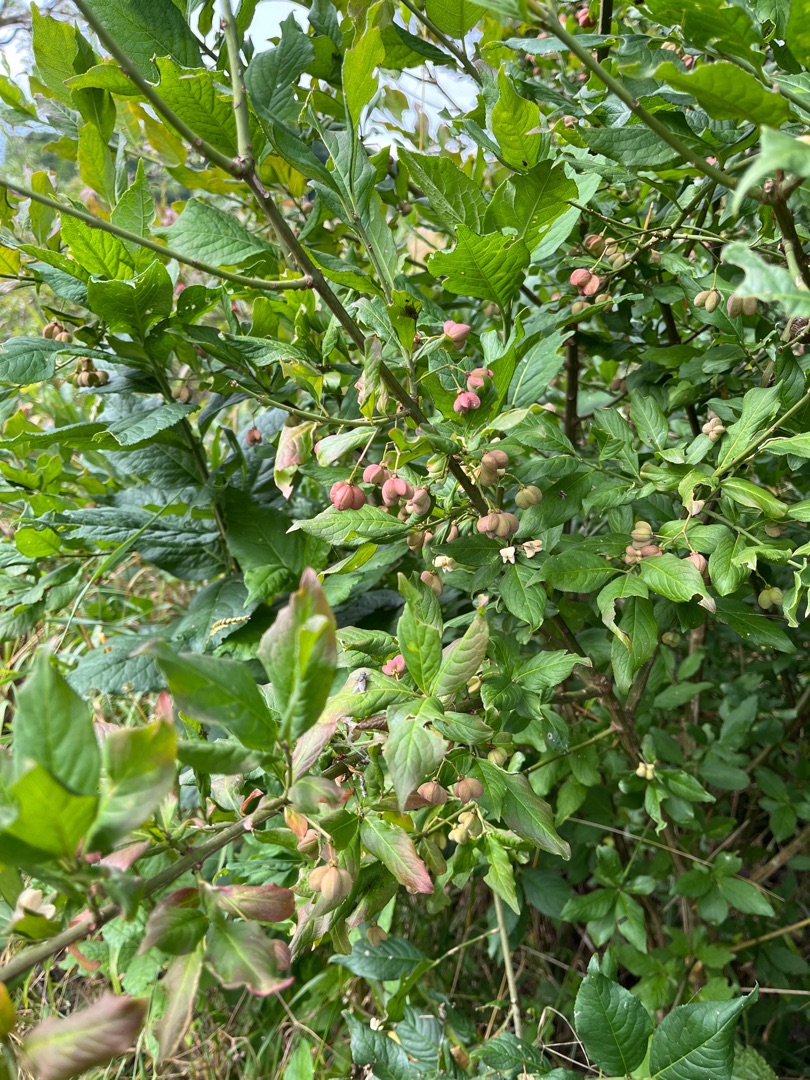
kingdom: Plantae
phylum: Tracheophyta
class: Magnoliopsida
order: Celastrales
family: Celastraceae
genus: Euonymus
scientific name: Euonymus europaeus
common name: Benved
